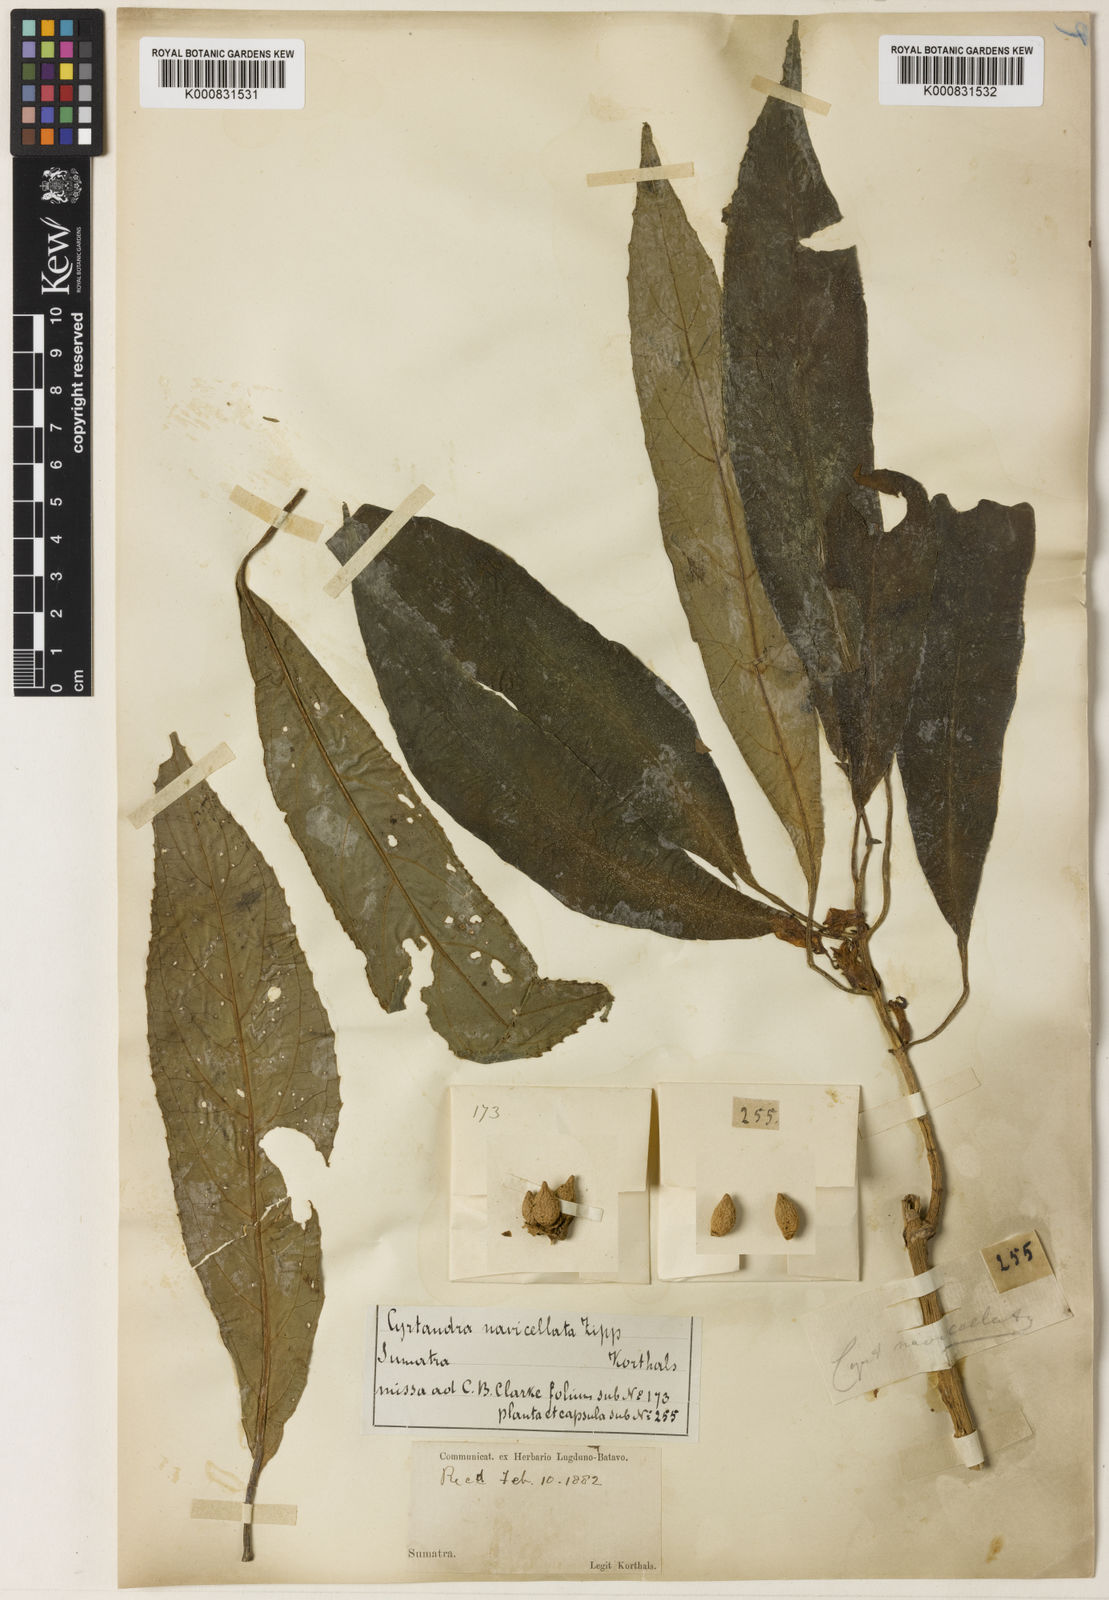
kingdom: Plantae
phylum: Tracheophyta
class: Magnoliopsida
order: Lamiales
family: Gesneriaceae
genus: Cyrtandra
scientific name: Cyrtandra navicellata
